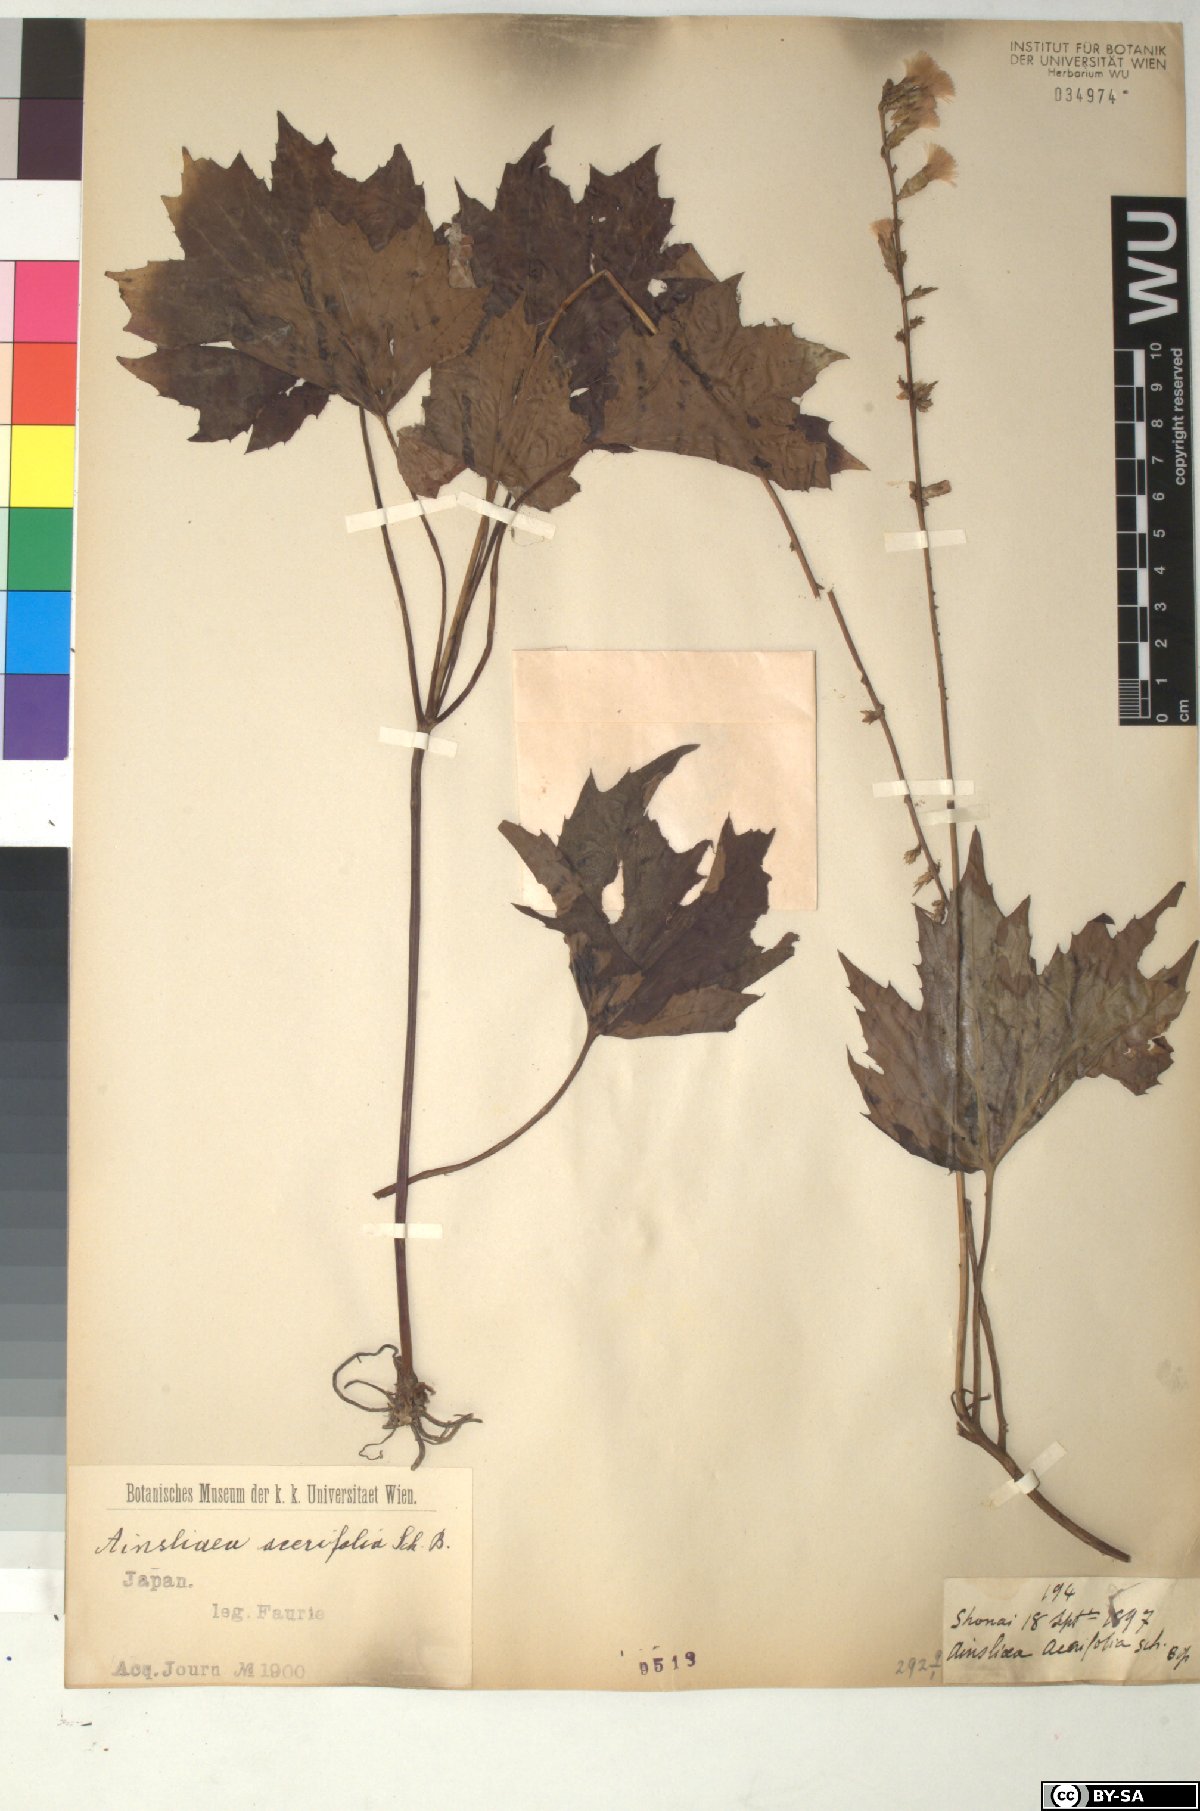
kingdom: Plantae
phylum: Tracheophyta
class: Magnoliopsida
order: Asterales
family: Asteraceae
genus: Ainsliaea
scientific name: Ainsliaea acerifolia
